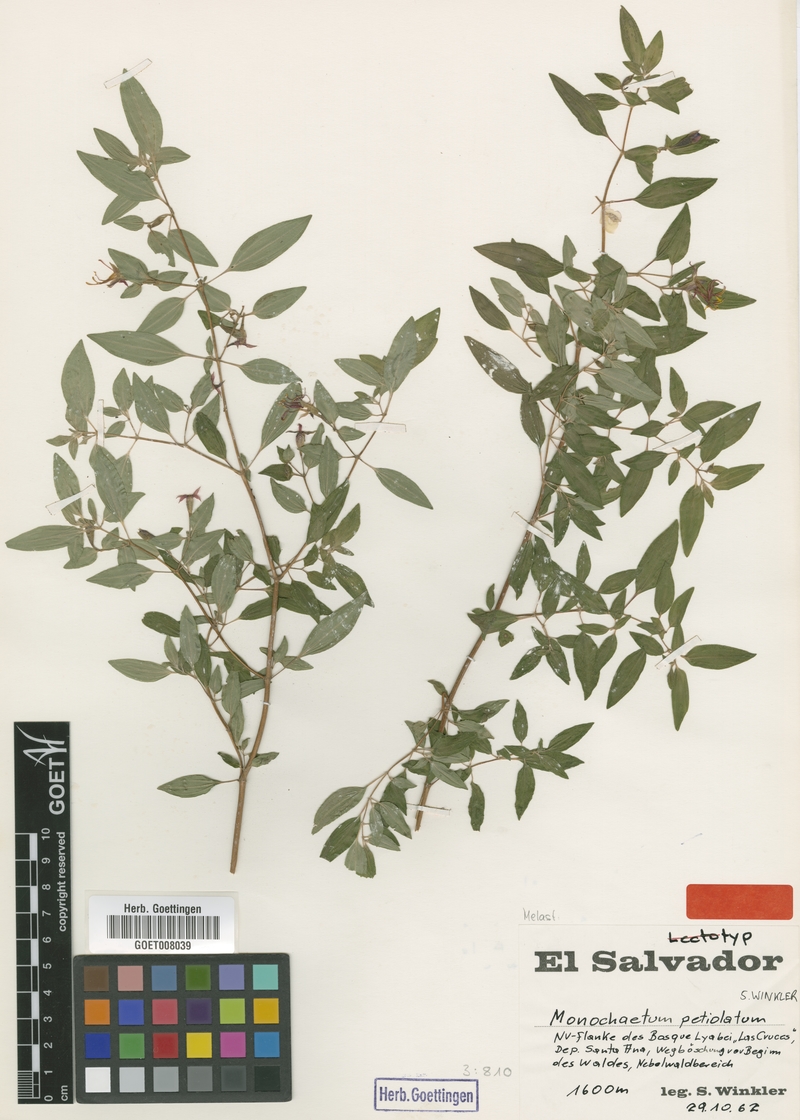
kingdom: Plantae
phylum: Tracheophyta
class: Magnoliopsida
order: Myrtales
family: Melastomataceae
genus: Monochaetum
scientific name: Monochaetum deppeanum
